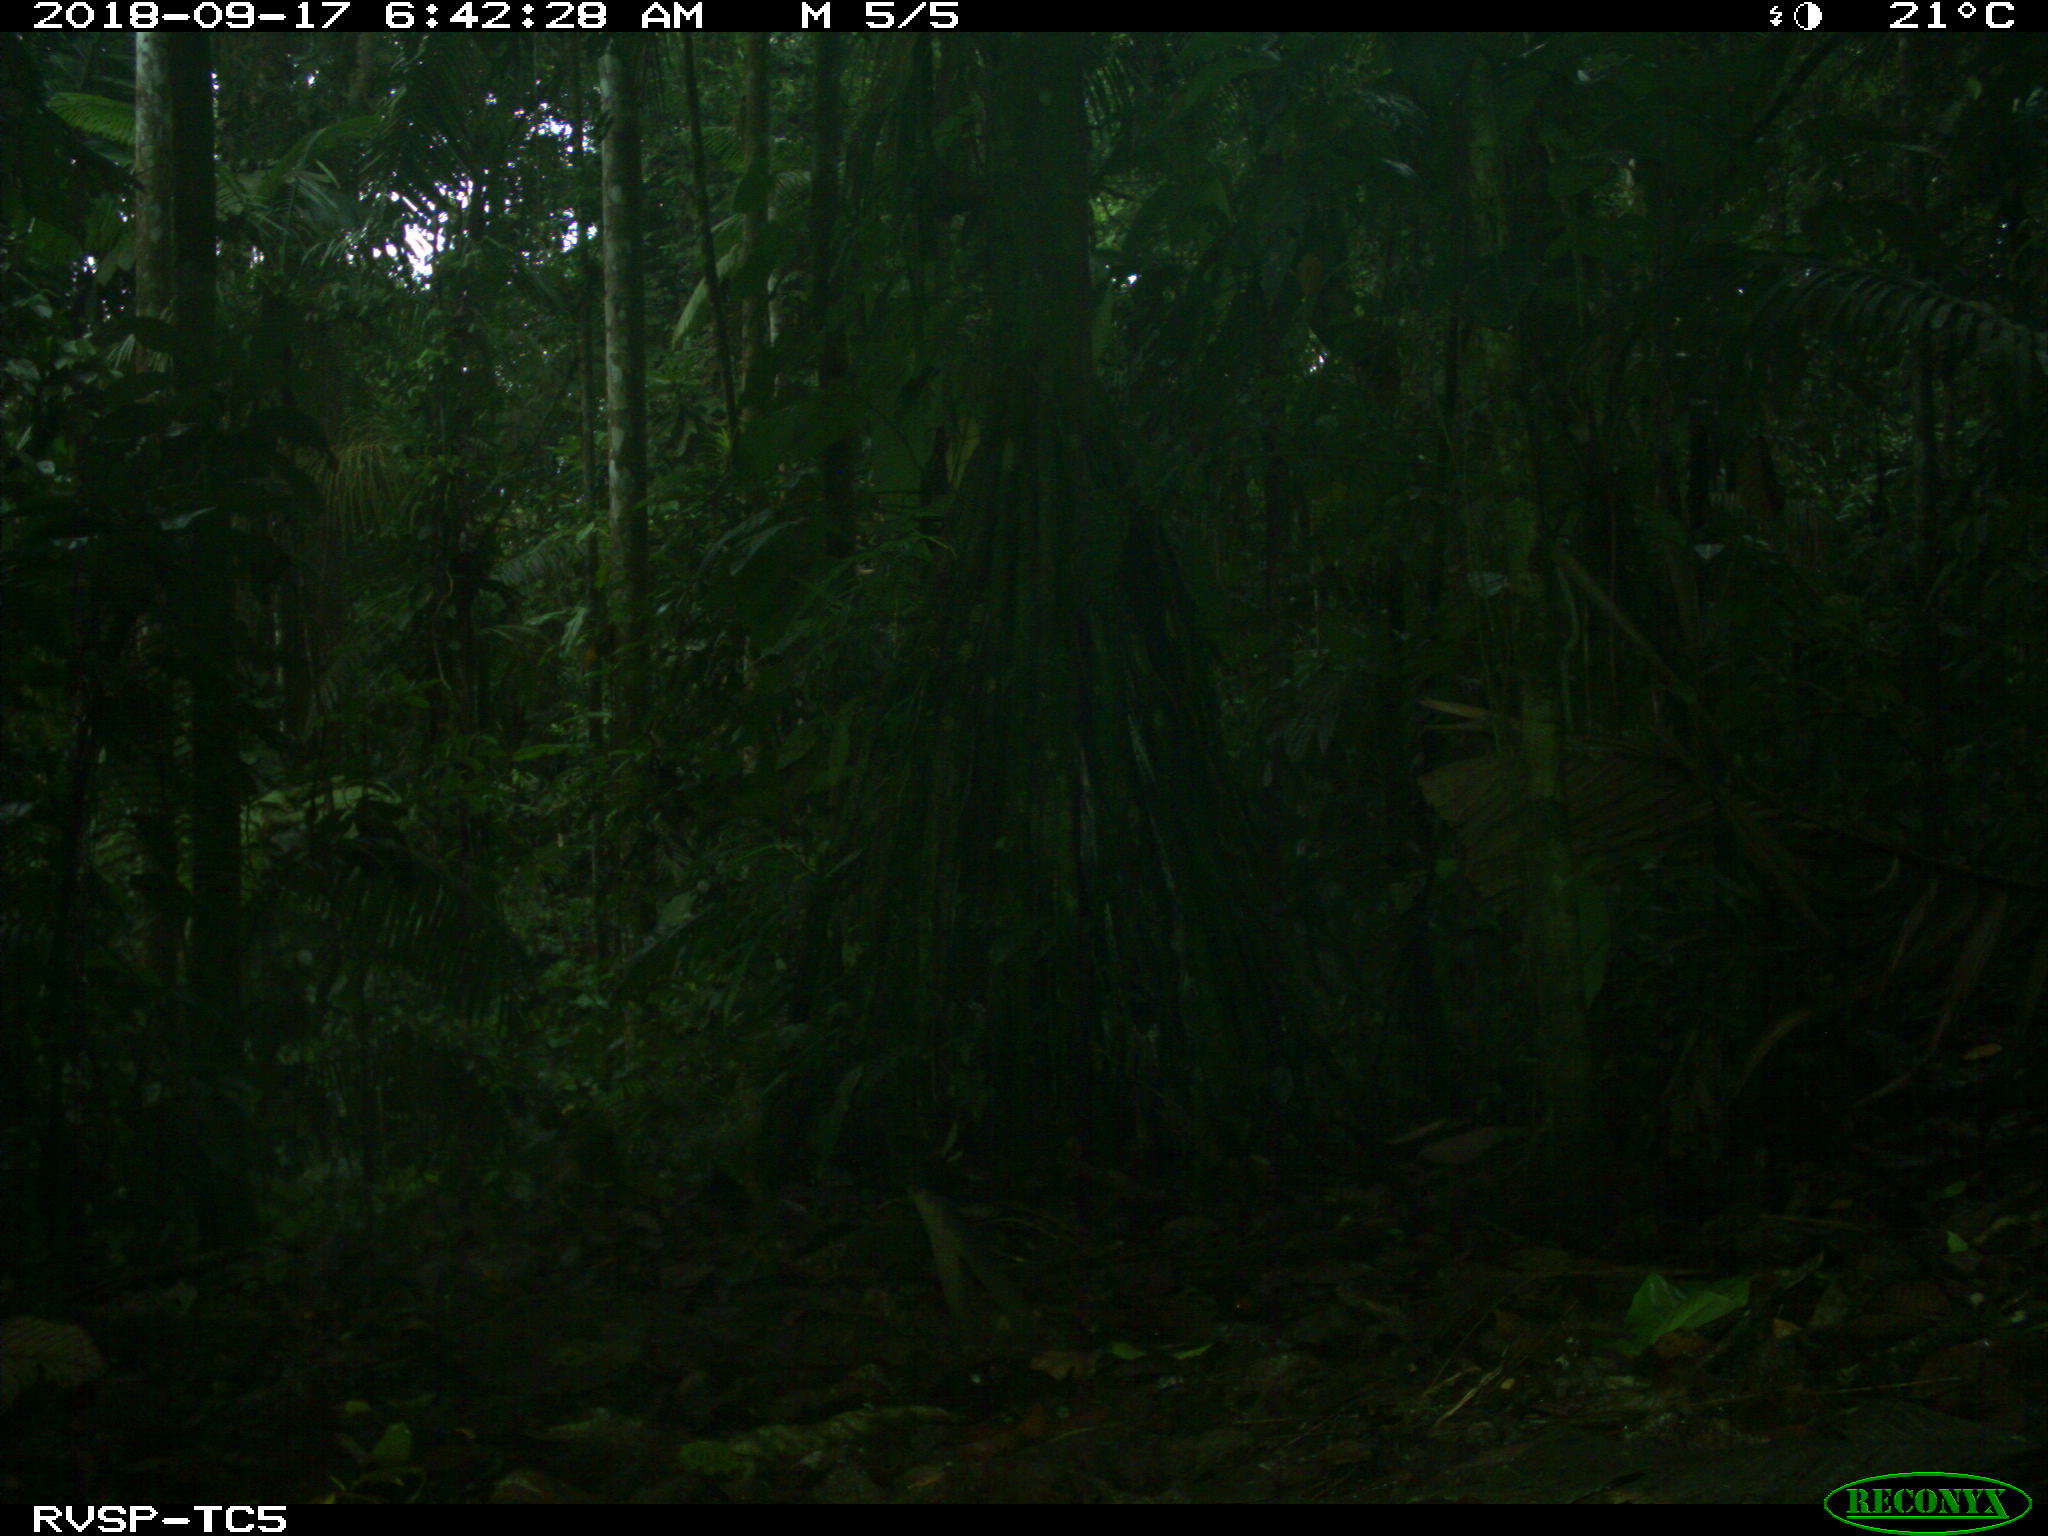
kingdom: Animalia
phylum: Chordata
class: Mammalia
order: Rodentia
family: Dasyproctidae
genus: Dasyprocta
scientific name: Dasyprocta punctata
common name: Central american agouti
